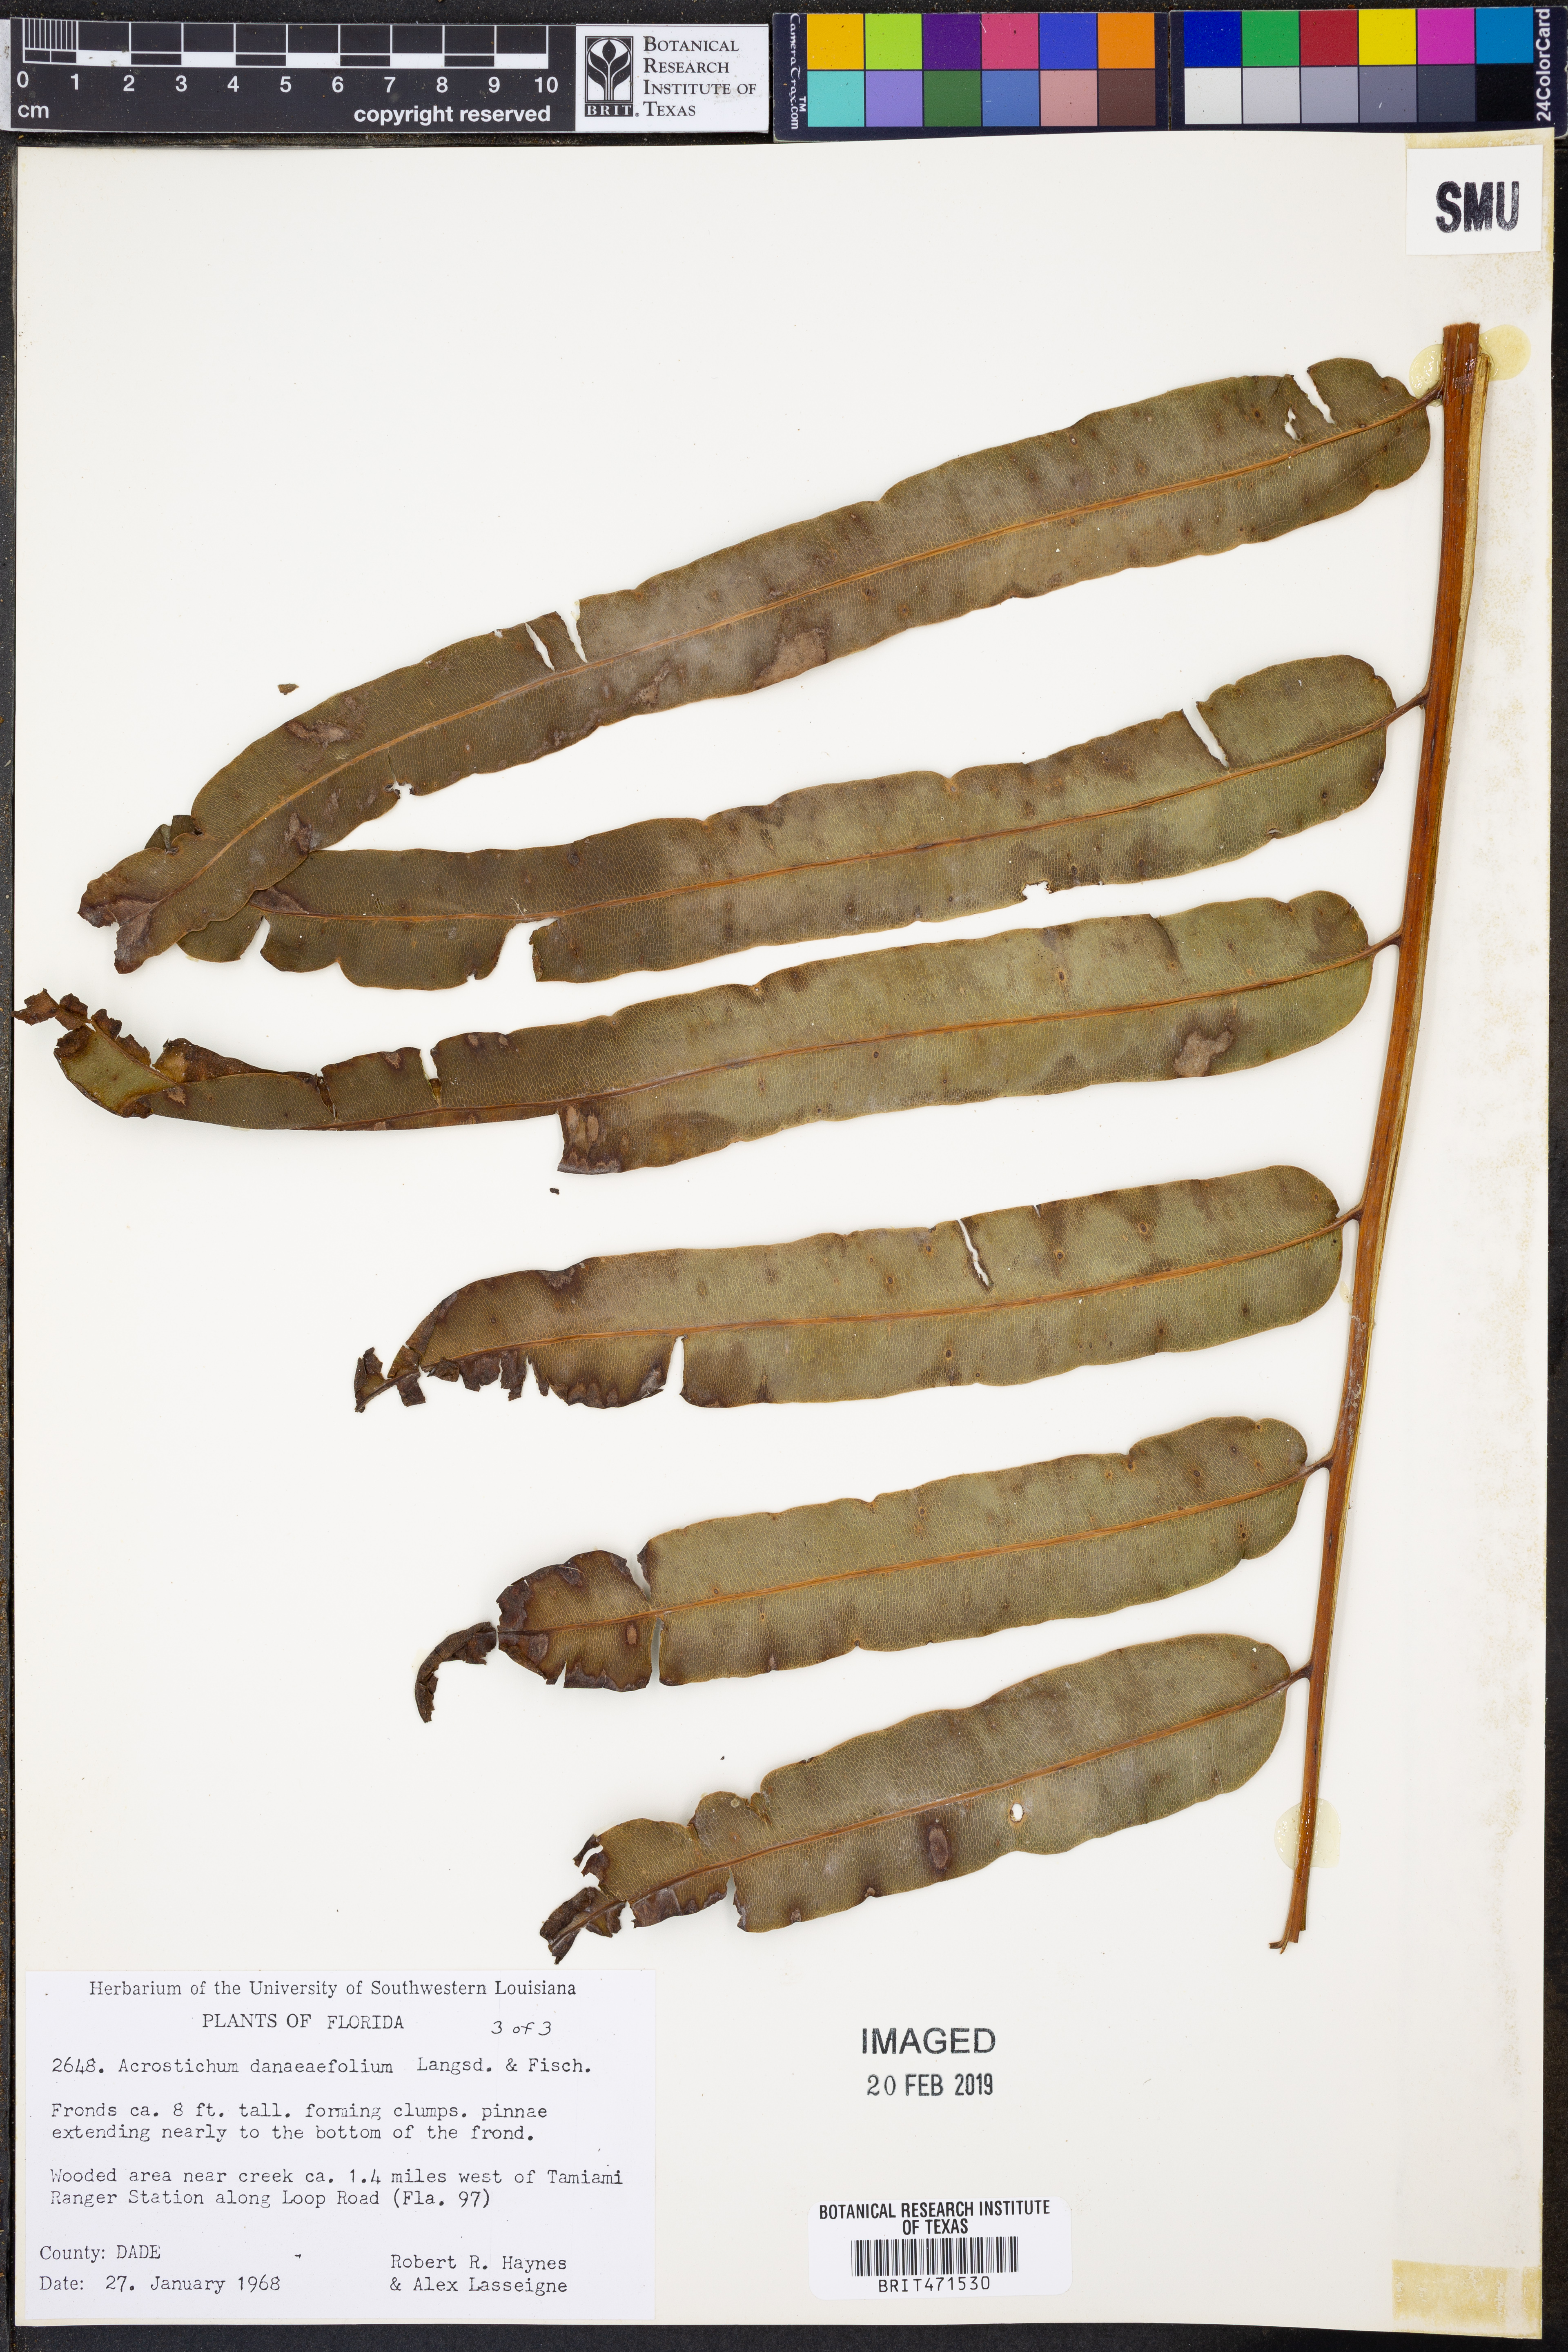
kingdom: Plantae
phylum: Tracheophyta
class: Polypodiopsida
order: Polypodiales
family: Pteridaceae
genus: Acrostichum
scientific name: Acrostichum danaeifolium
